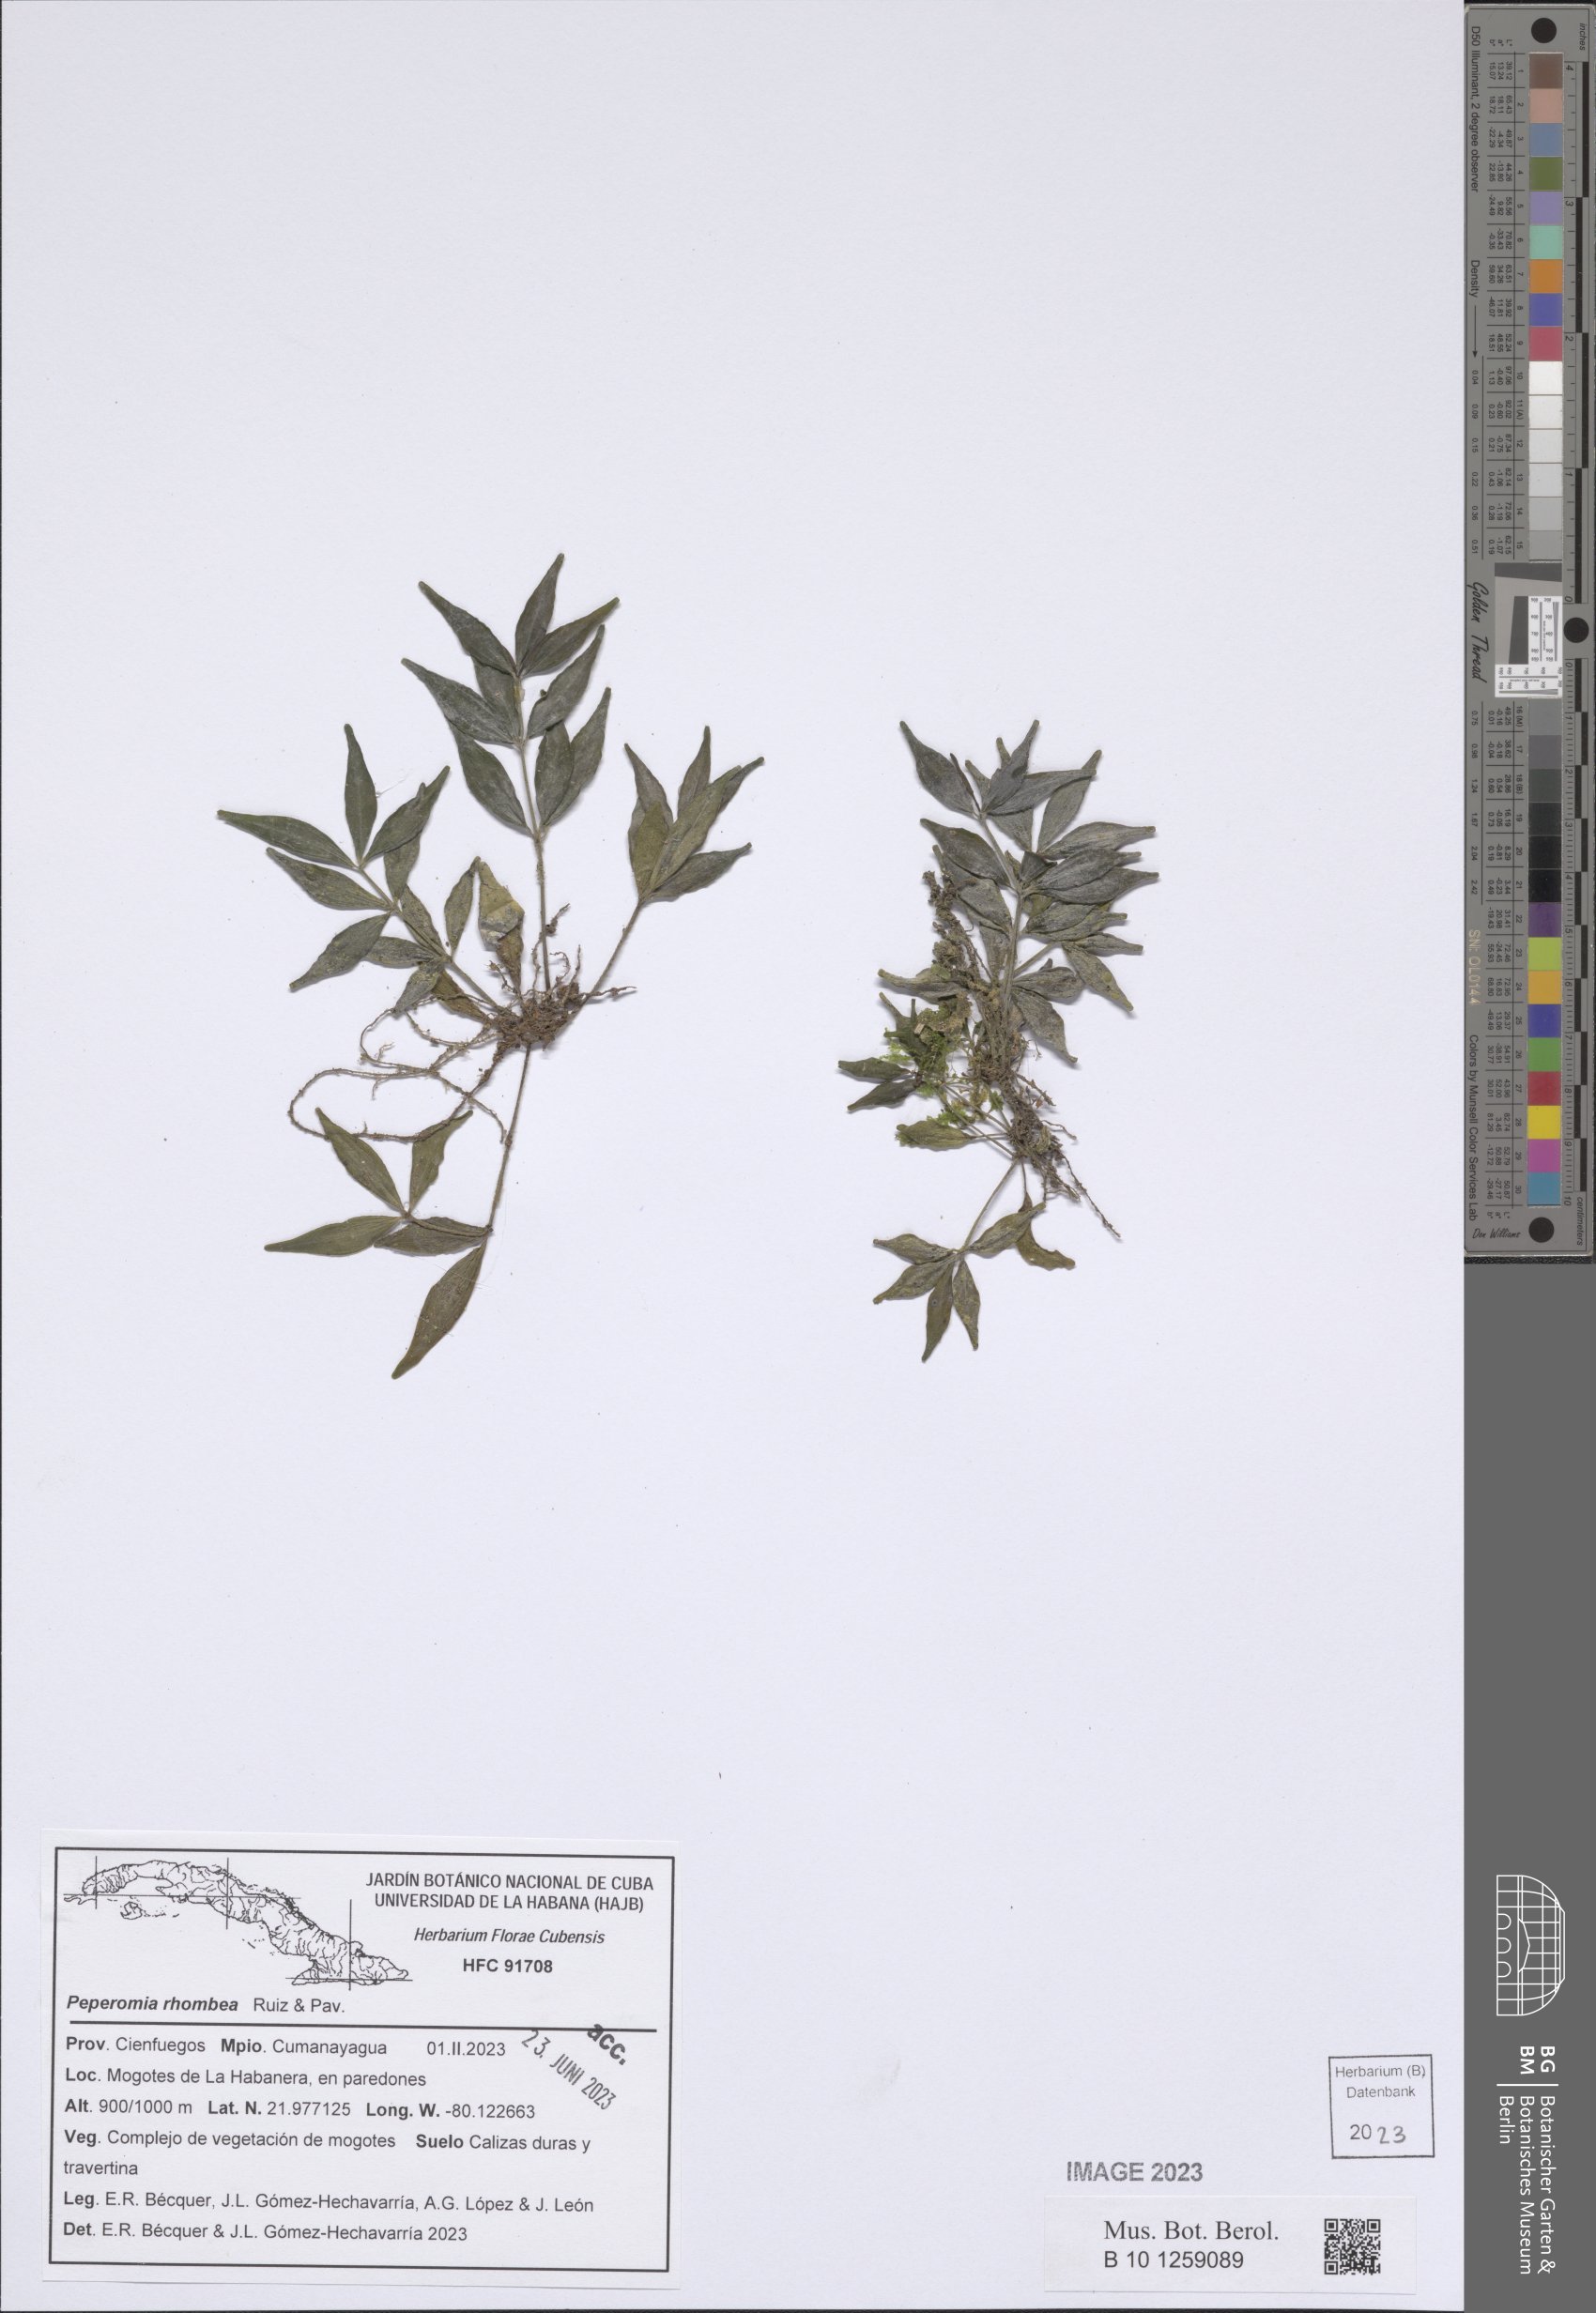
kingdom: Plantae
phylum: Tracheophyta
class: Magnoliopsida
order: Piperales
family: Piperaceae
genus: Peperomia
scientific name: Peperomia rhombea
